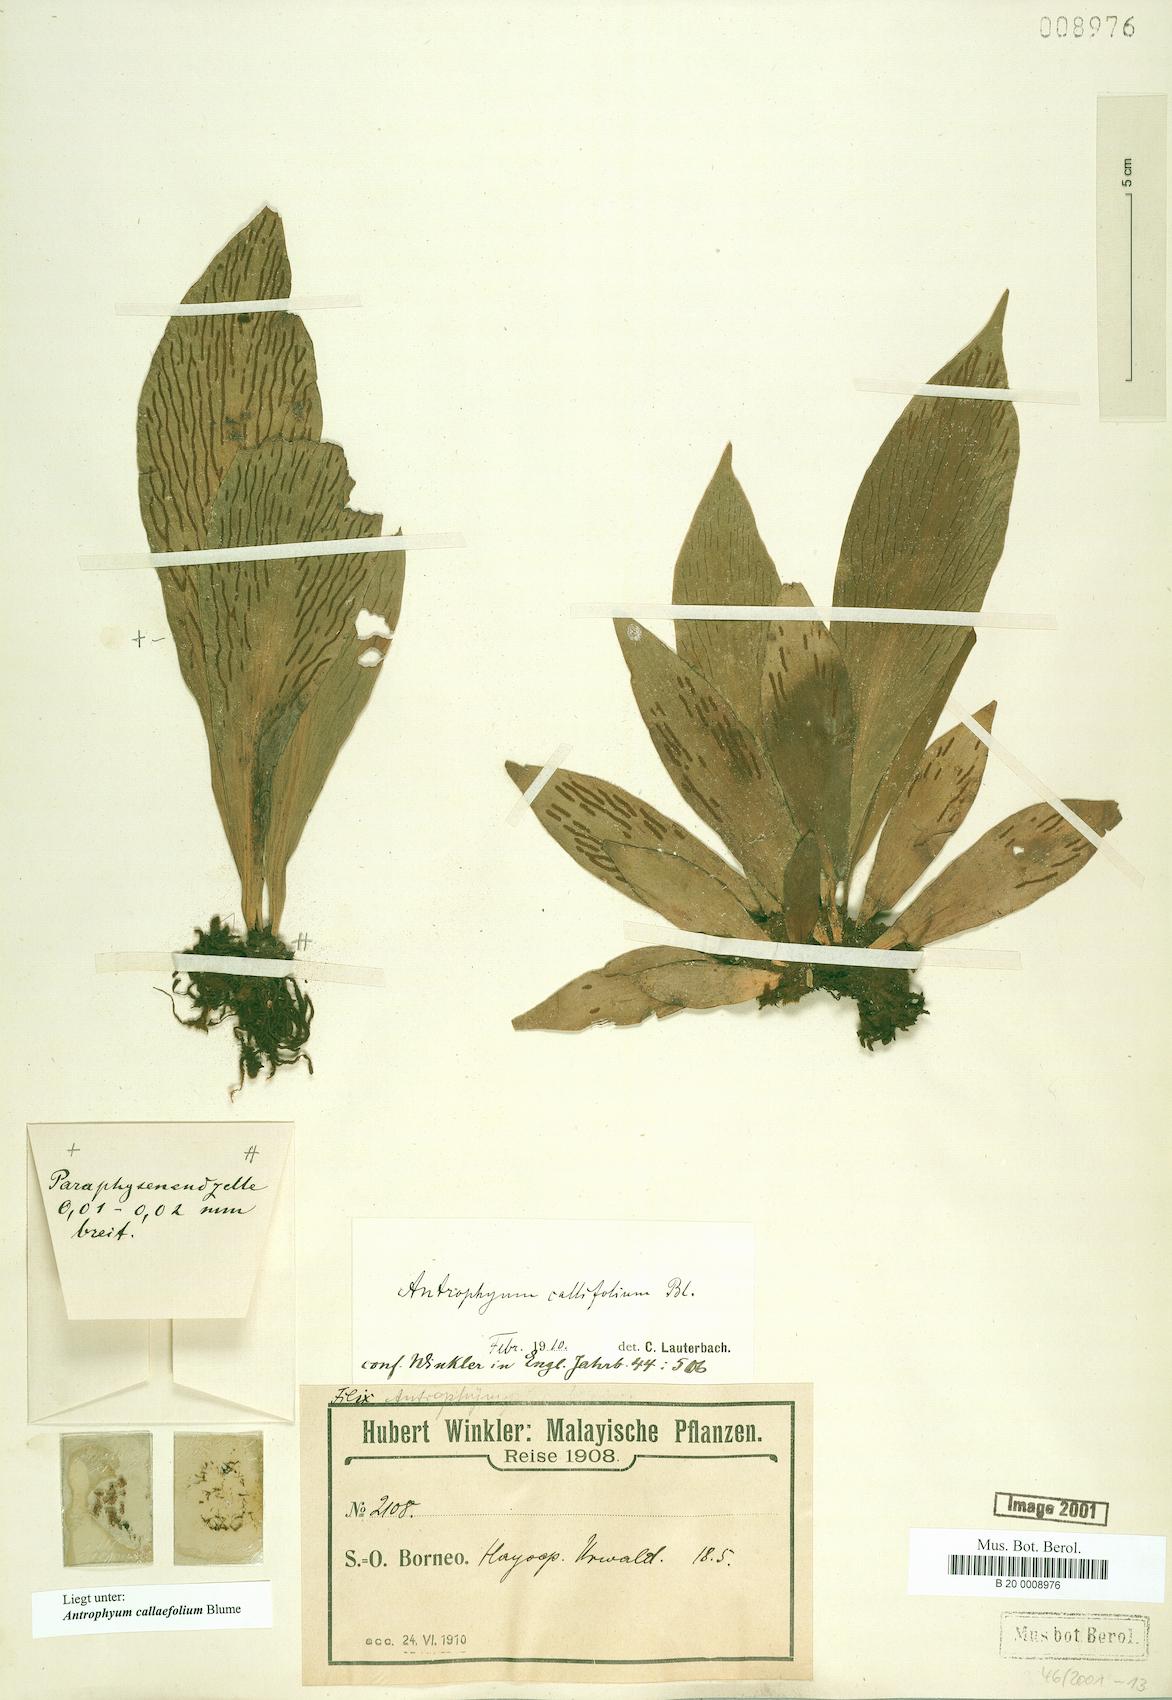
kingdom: Plantae
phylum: Tracheophyta
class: Polypodiopsida
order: Polypodiales
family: Pteridaceae
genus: Antrophyum
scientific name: Antrophyum callifolium
